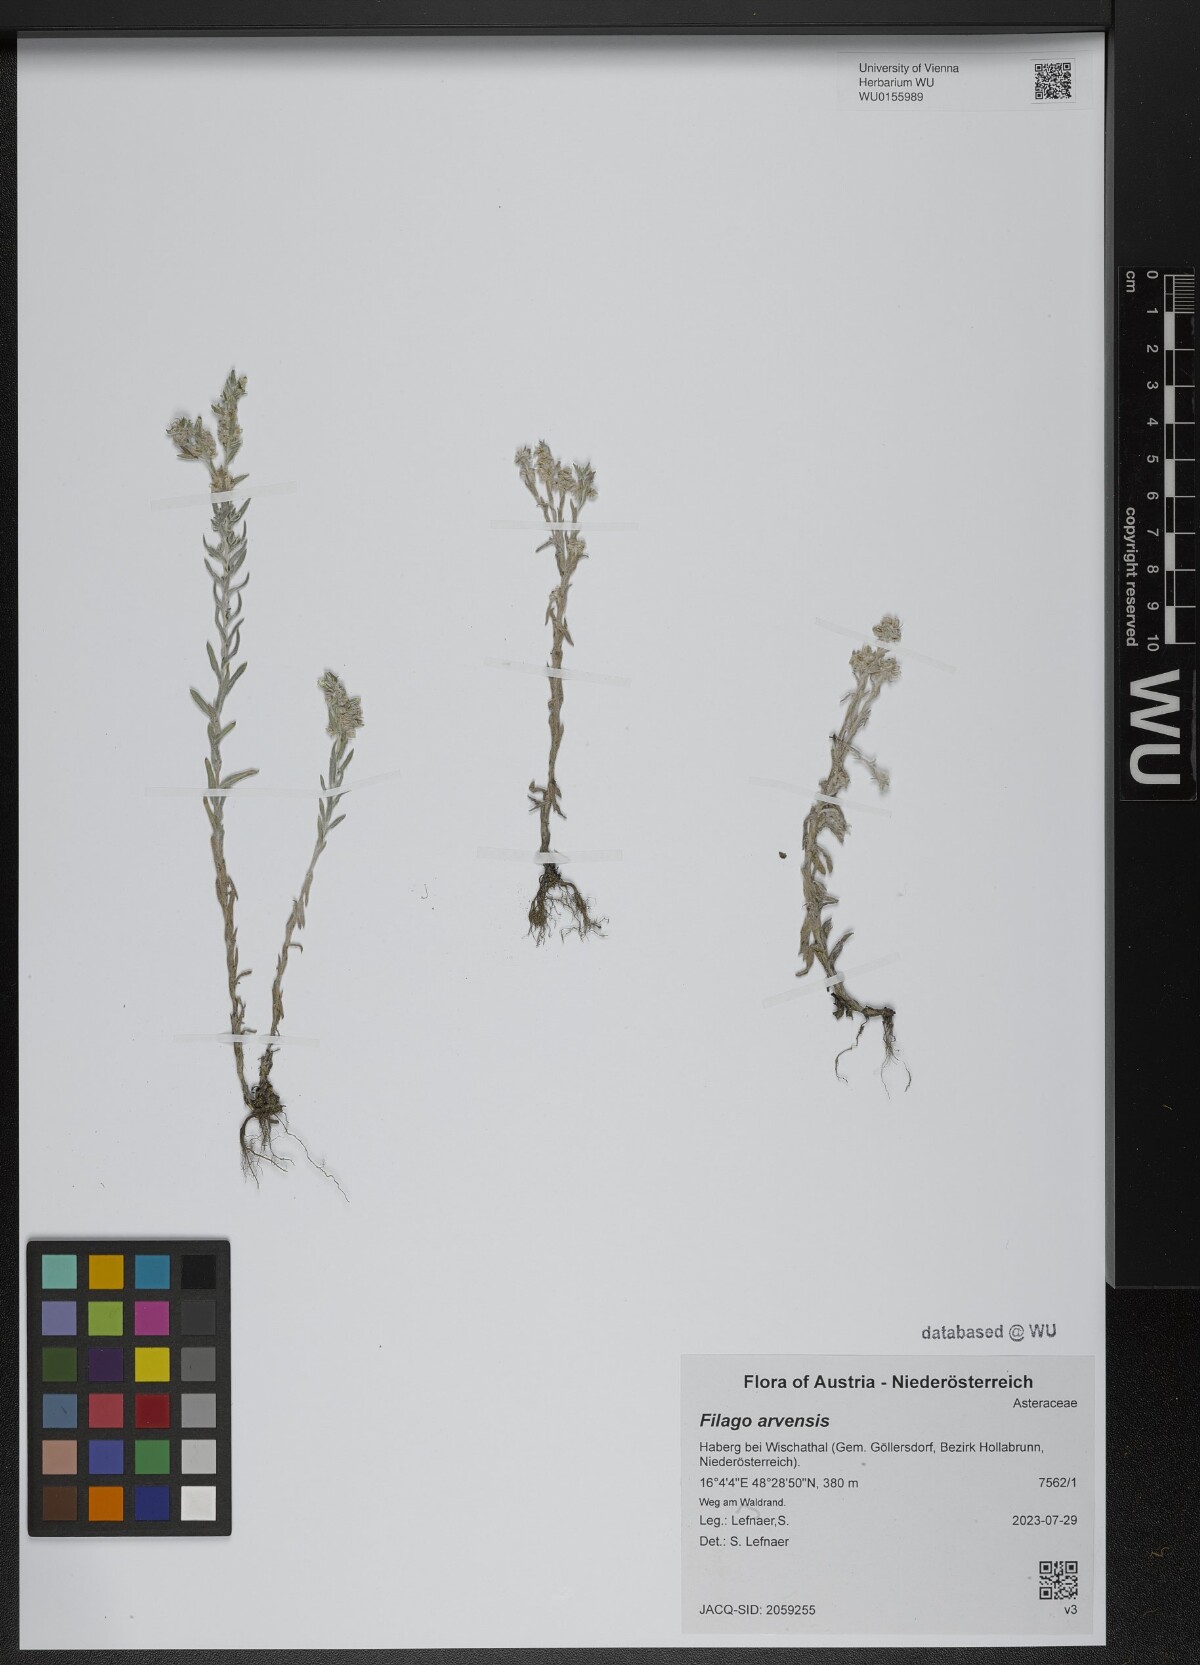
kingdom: Plantae
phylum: Tracheophyta
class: Magnoliopsida
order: Asterales
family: Asteraceae
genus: Filago
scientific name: Filago arvensis
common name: Field cudweed
